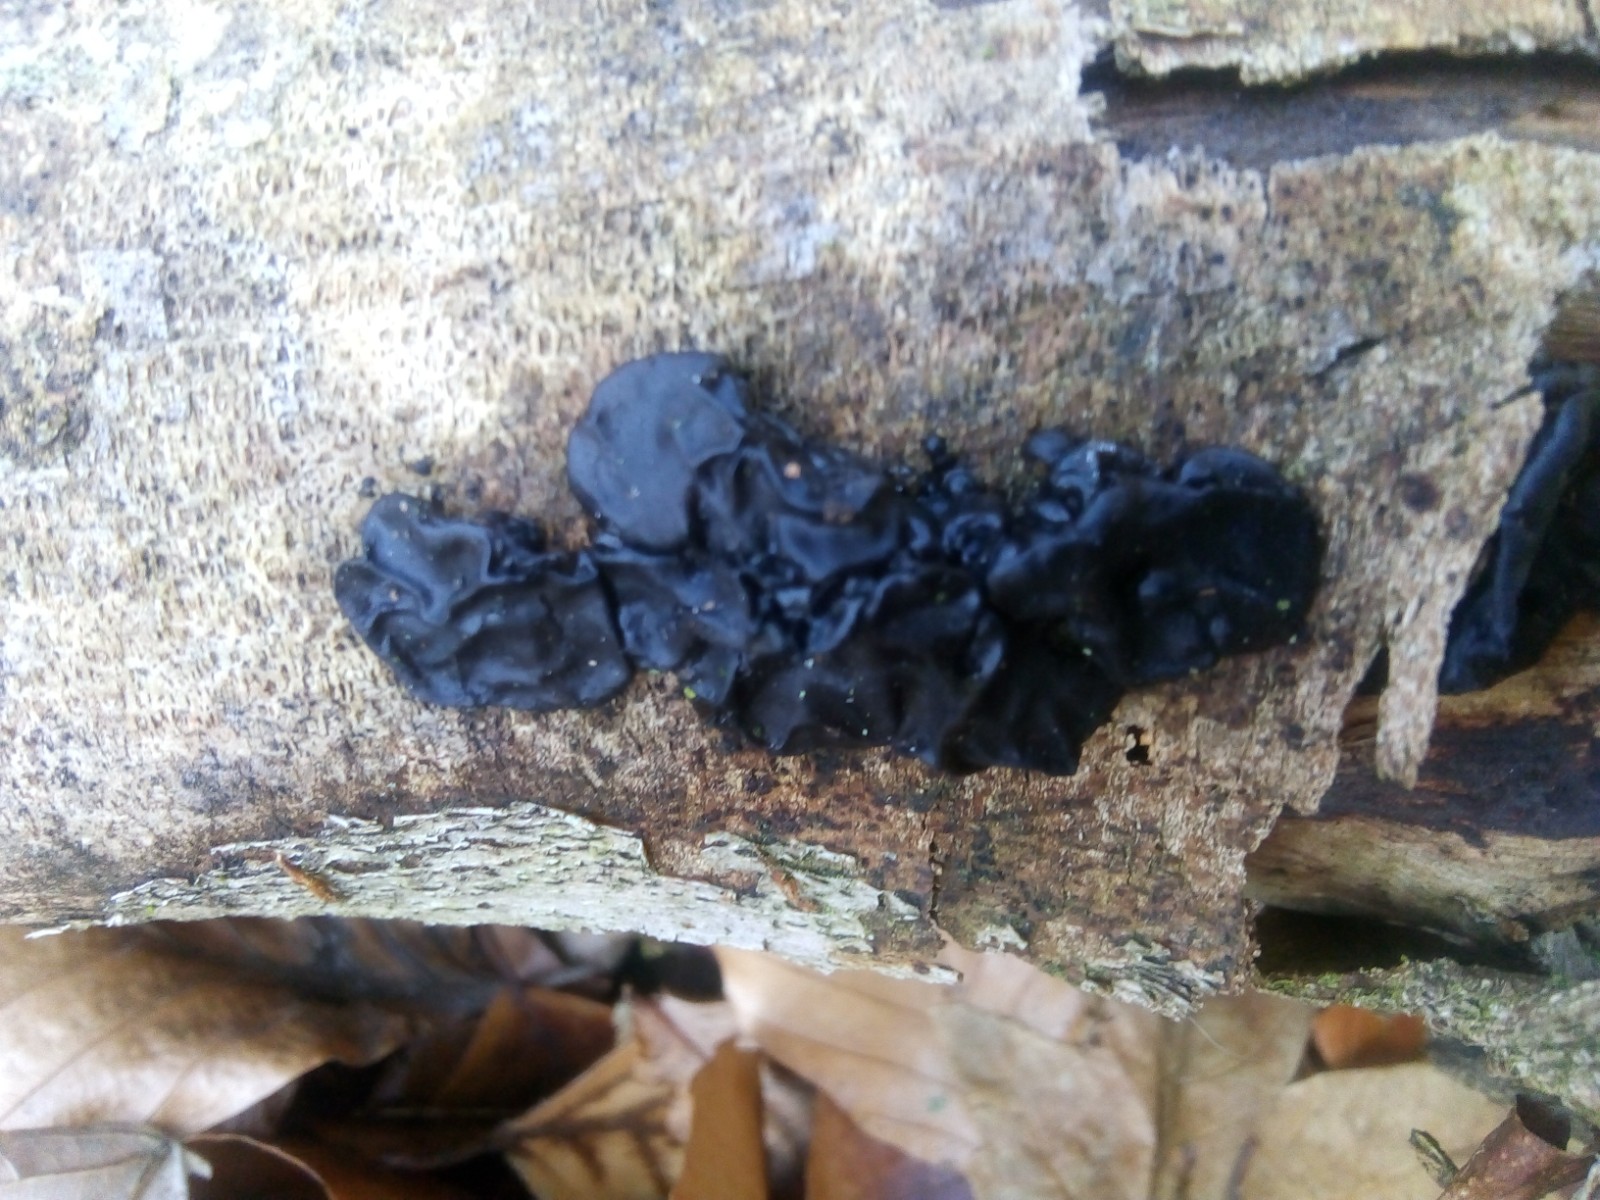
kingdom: Fungi
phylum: Basidiomycota
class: Agaricomycetes
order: Auriculariales
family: Auriculariaceae
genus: Exidia
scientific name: Exidia nigricans
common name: almindelig bævretop
